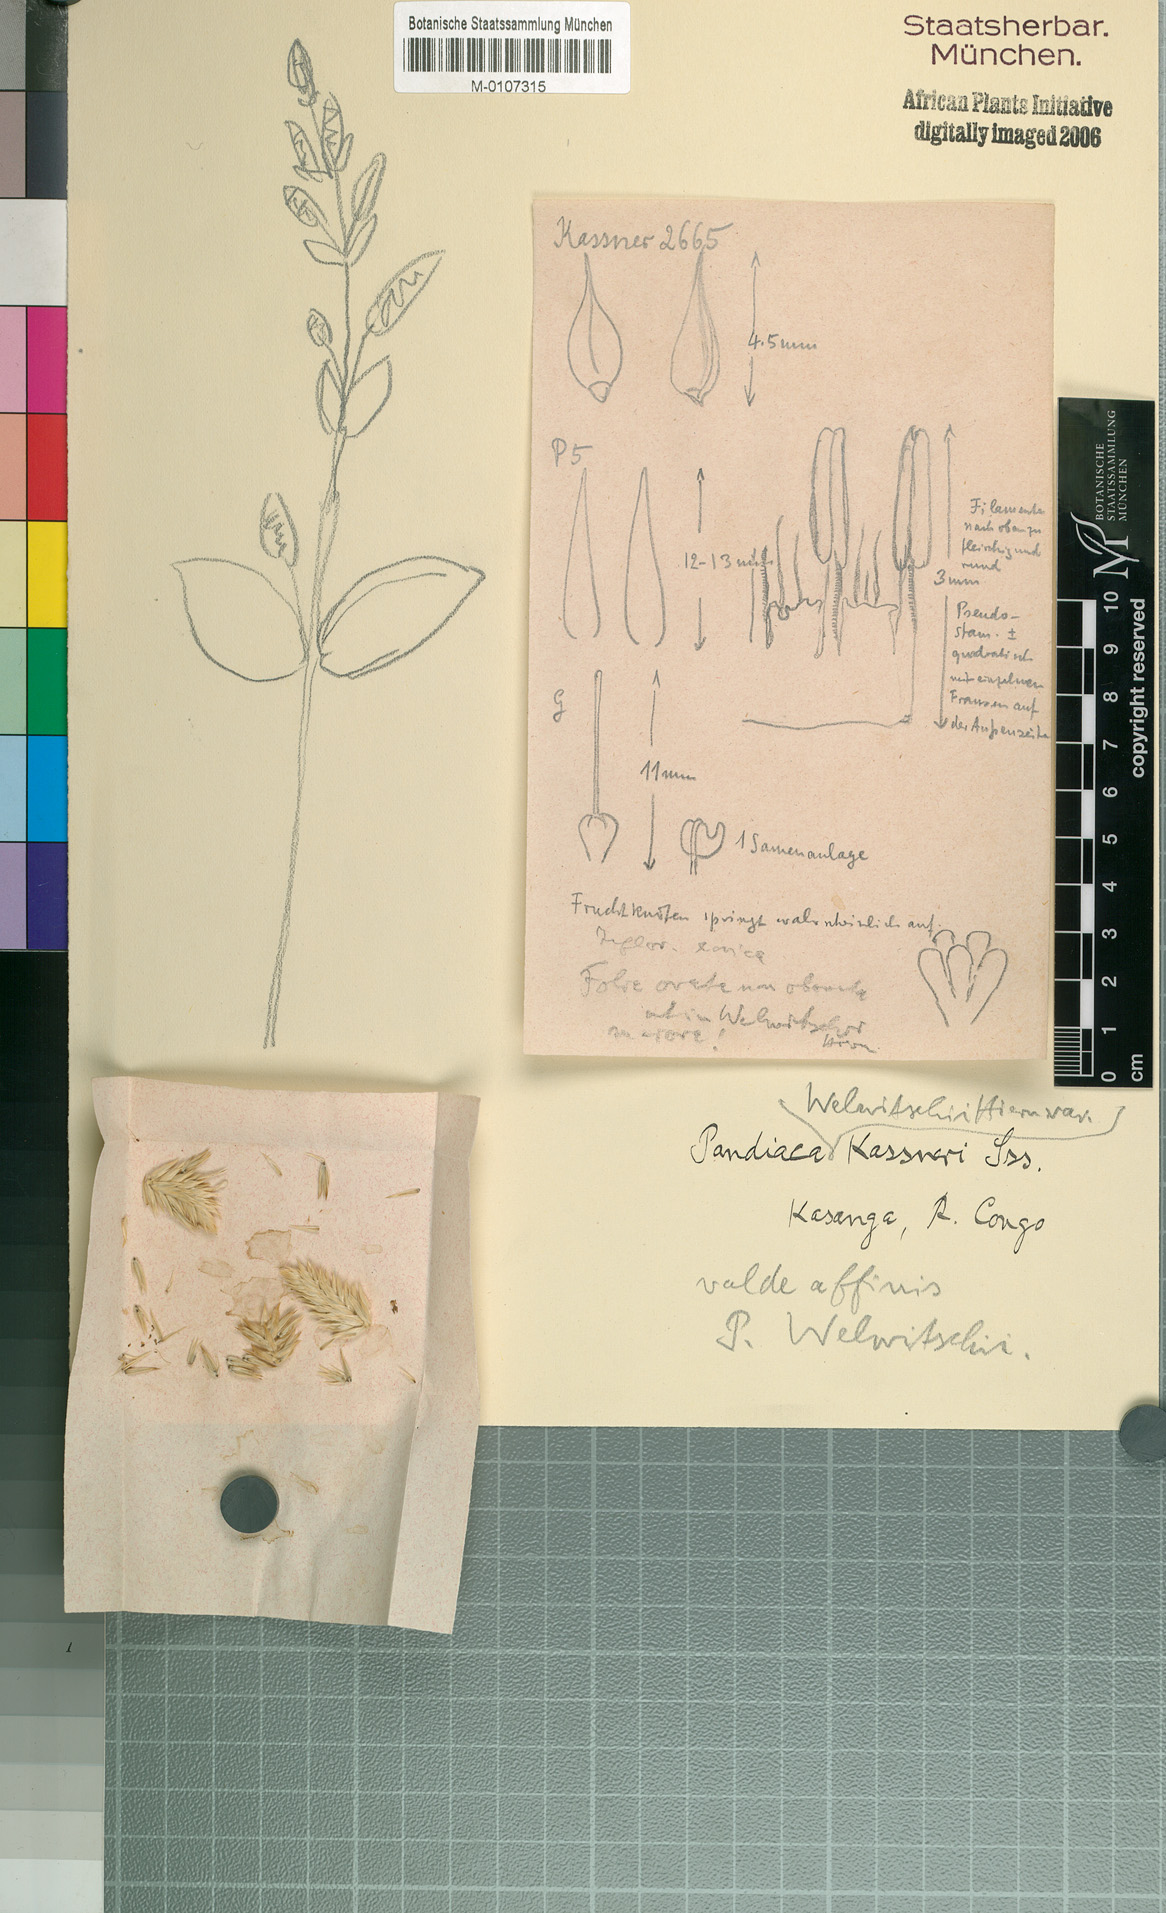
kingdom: Plantae
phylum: Tracheophyta
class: Magnoliopsida
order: Caryophyllales
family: Amaranthaceae
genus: Pandiaka
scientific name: Pandiaka welwitschii
